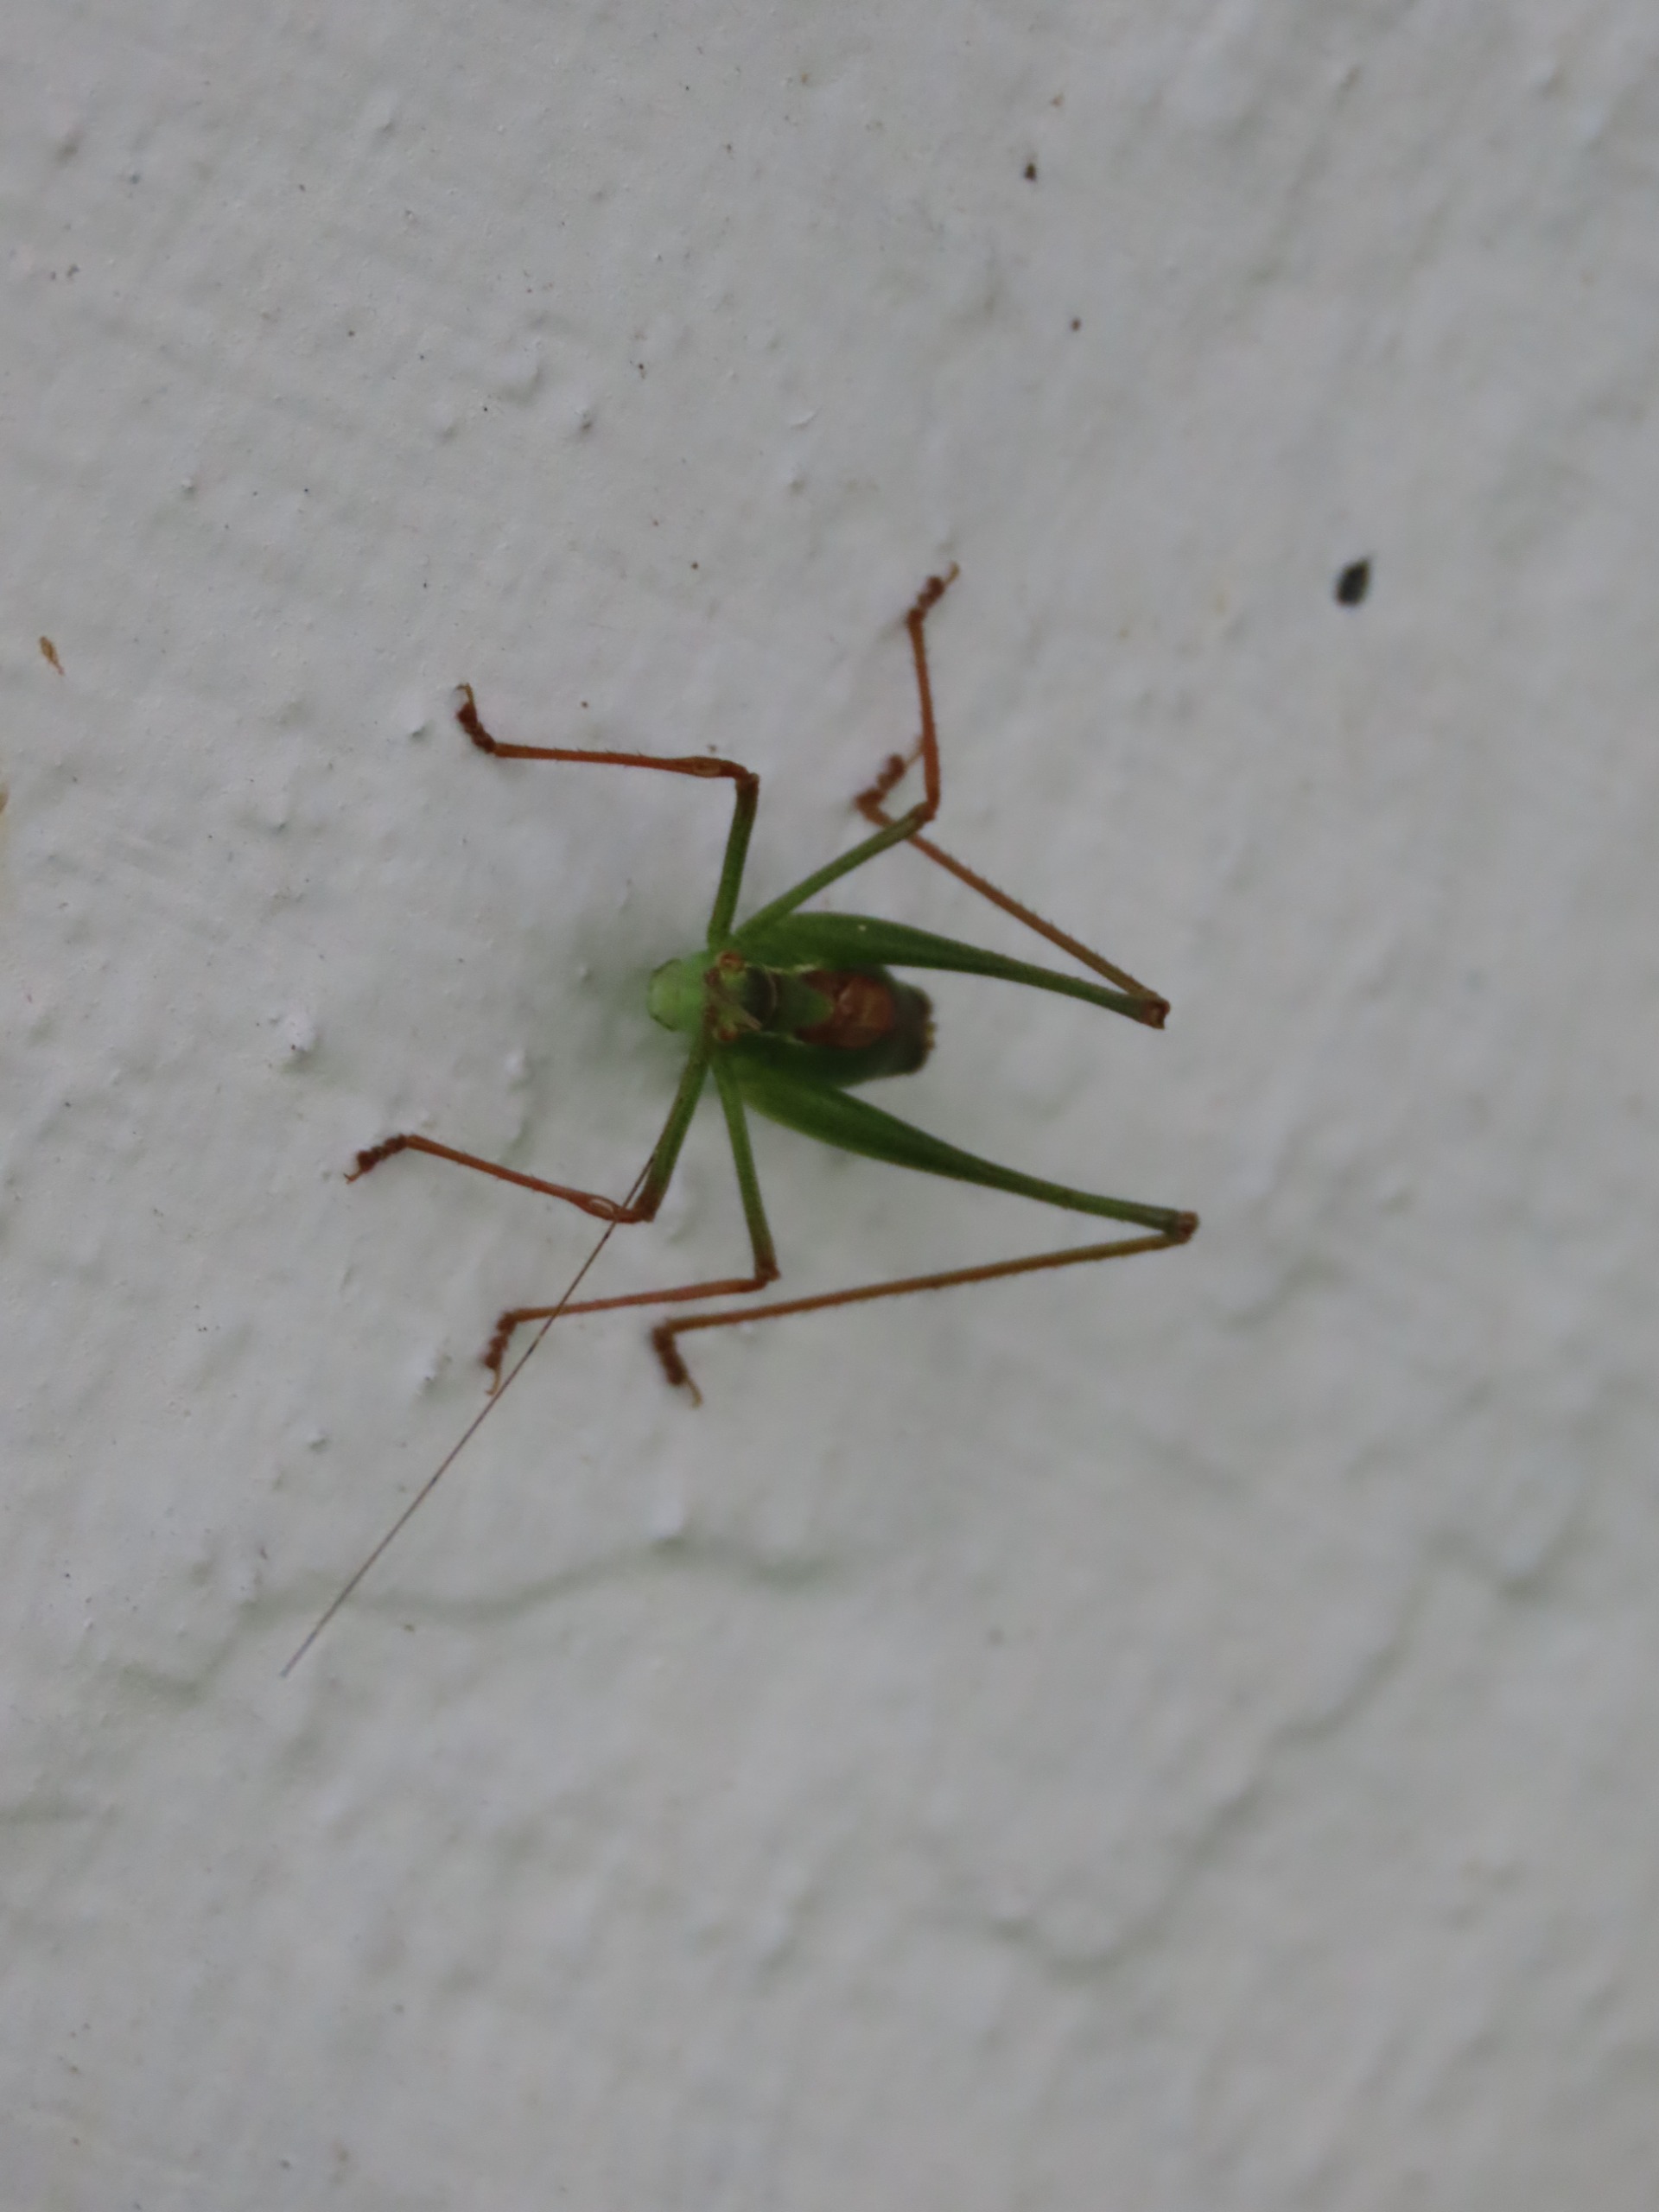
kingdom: Animalia
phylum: Arthropoda
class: Insecta
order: Orthoptera
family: Tettigoniidae
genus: Leptophyes
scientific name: Leptophyes punctatissima
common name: Krumknivgræshoppe
